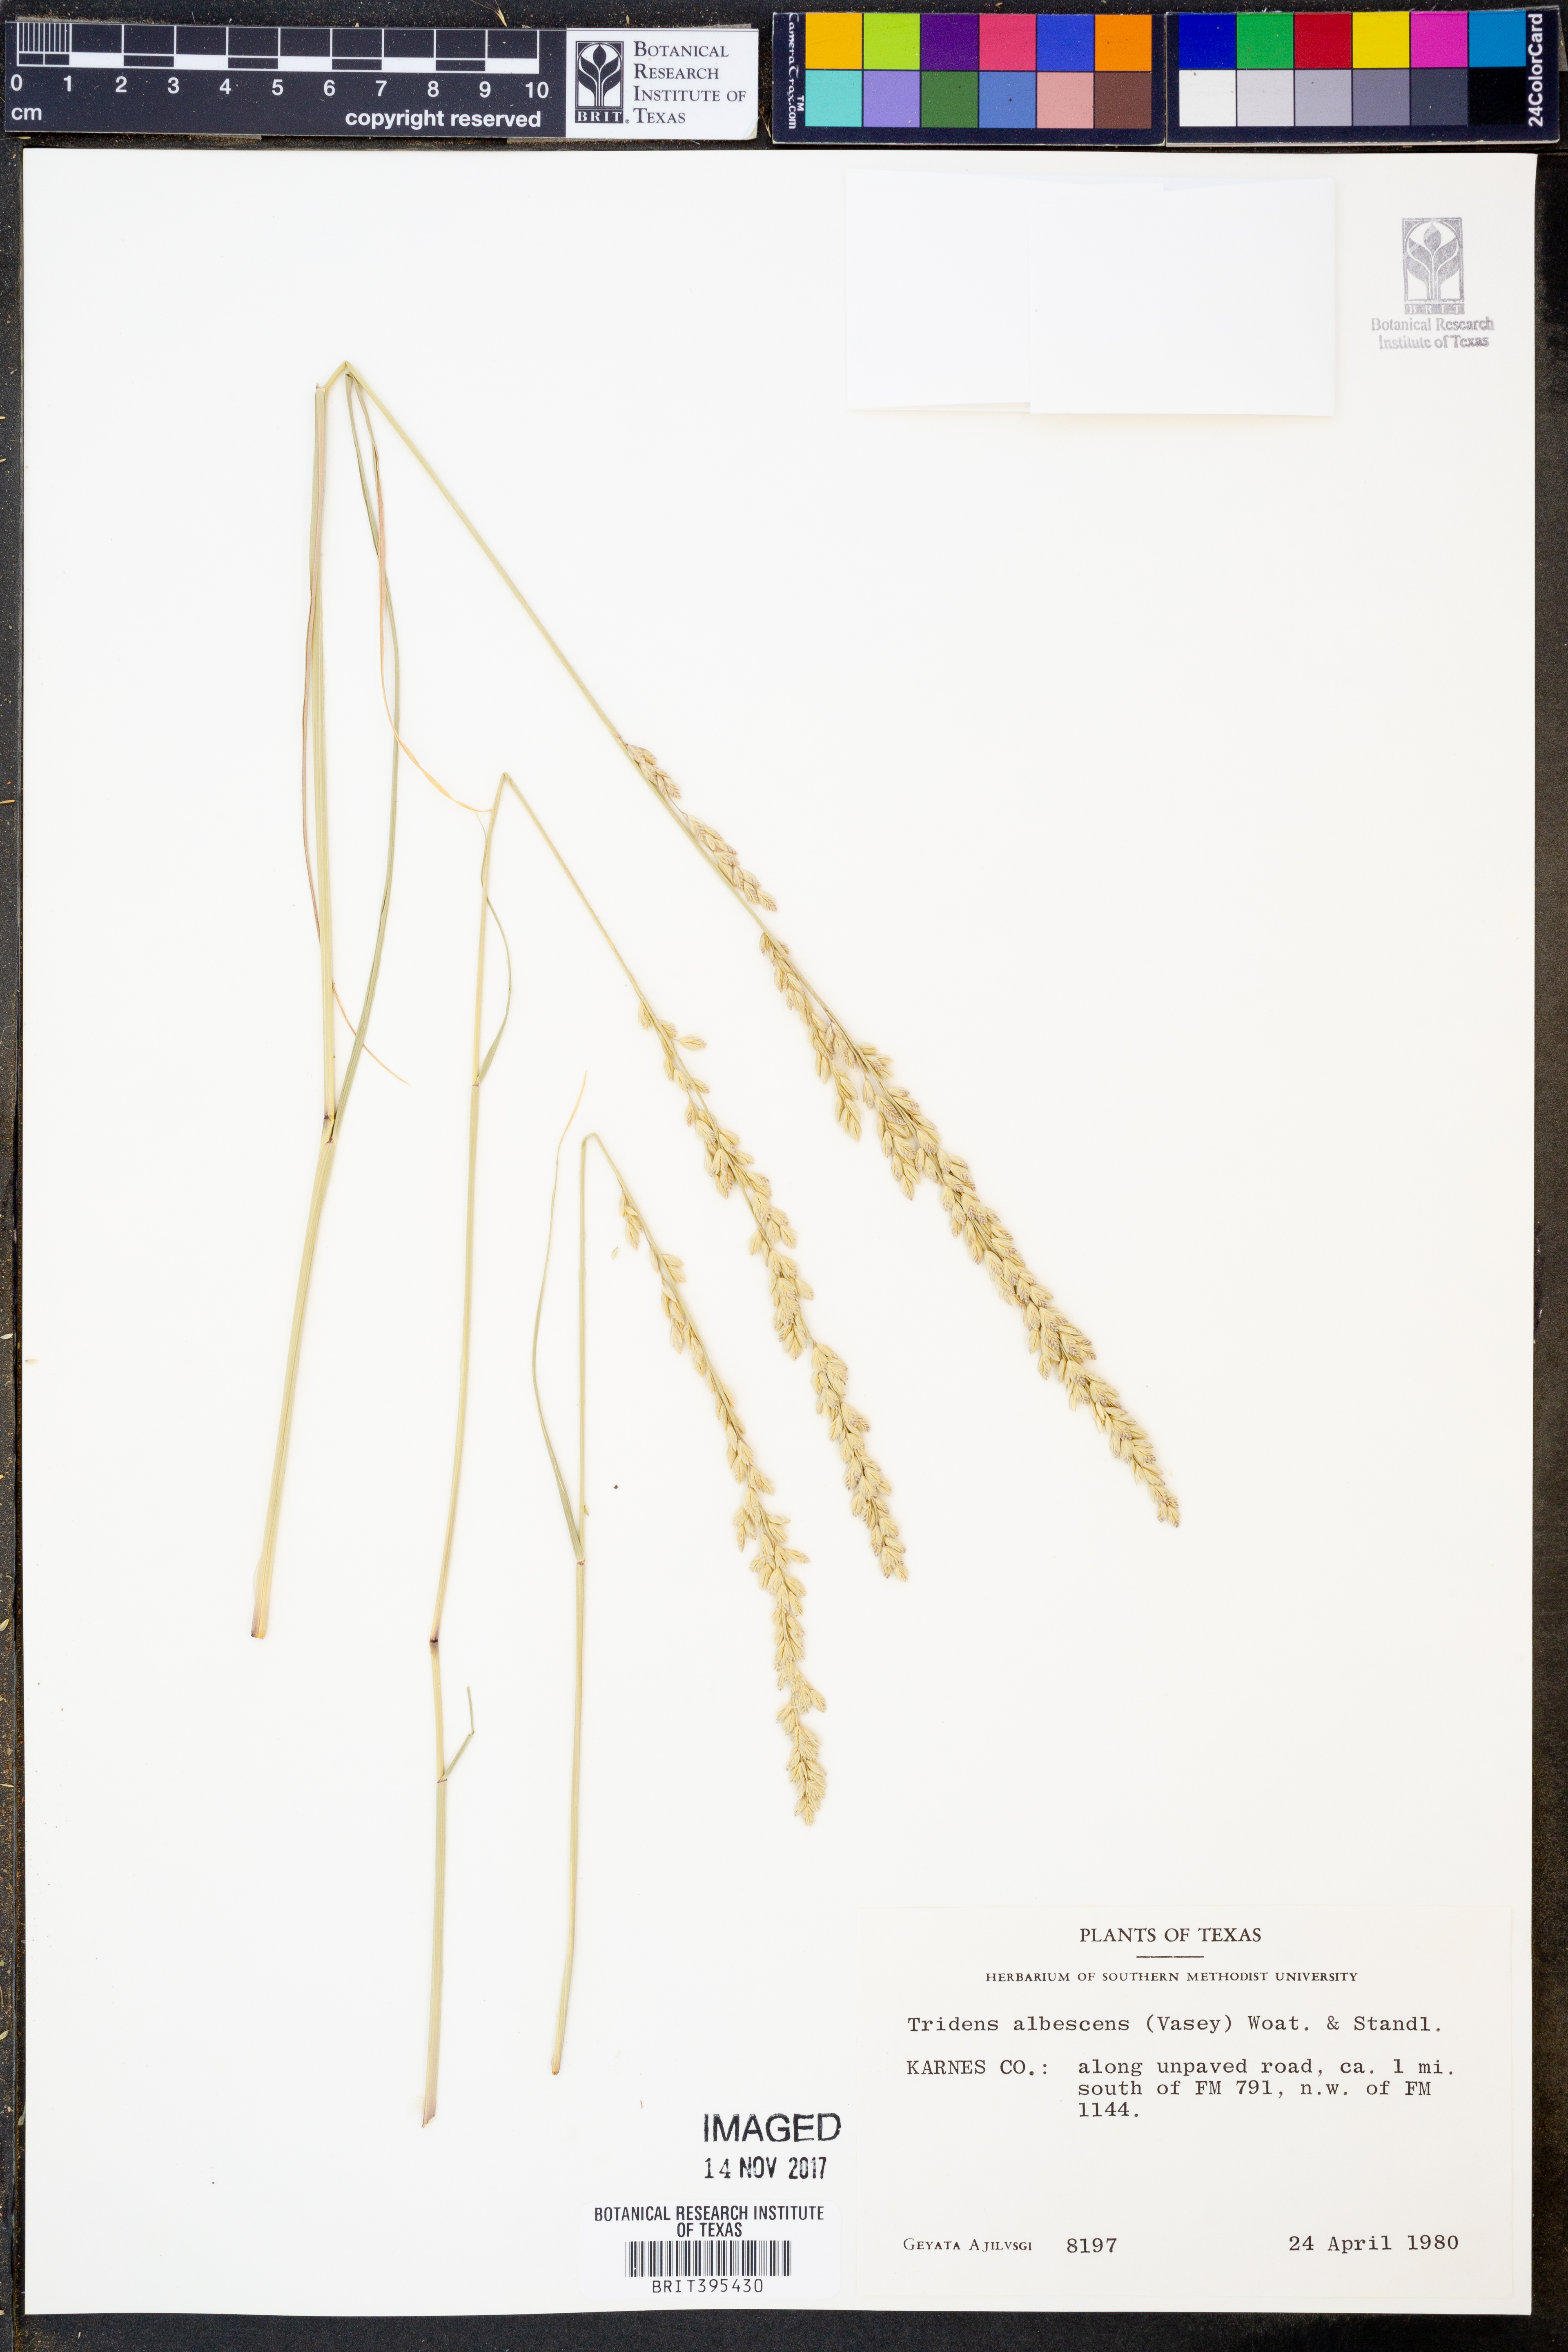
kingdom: Plantae
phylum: Tracheophyta
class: Liliopsida
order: Poales
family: Poaceae
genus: Tridens
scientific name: Tridens albescens
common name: White tridens
